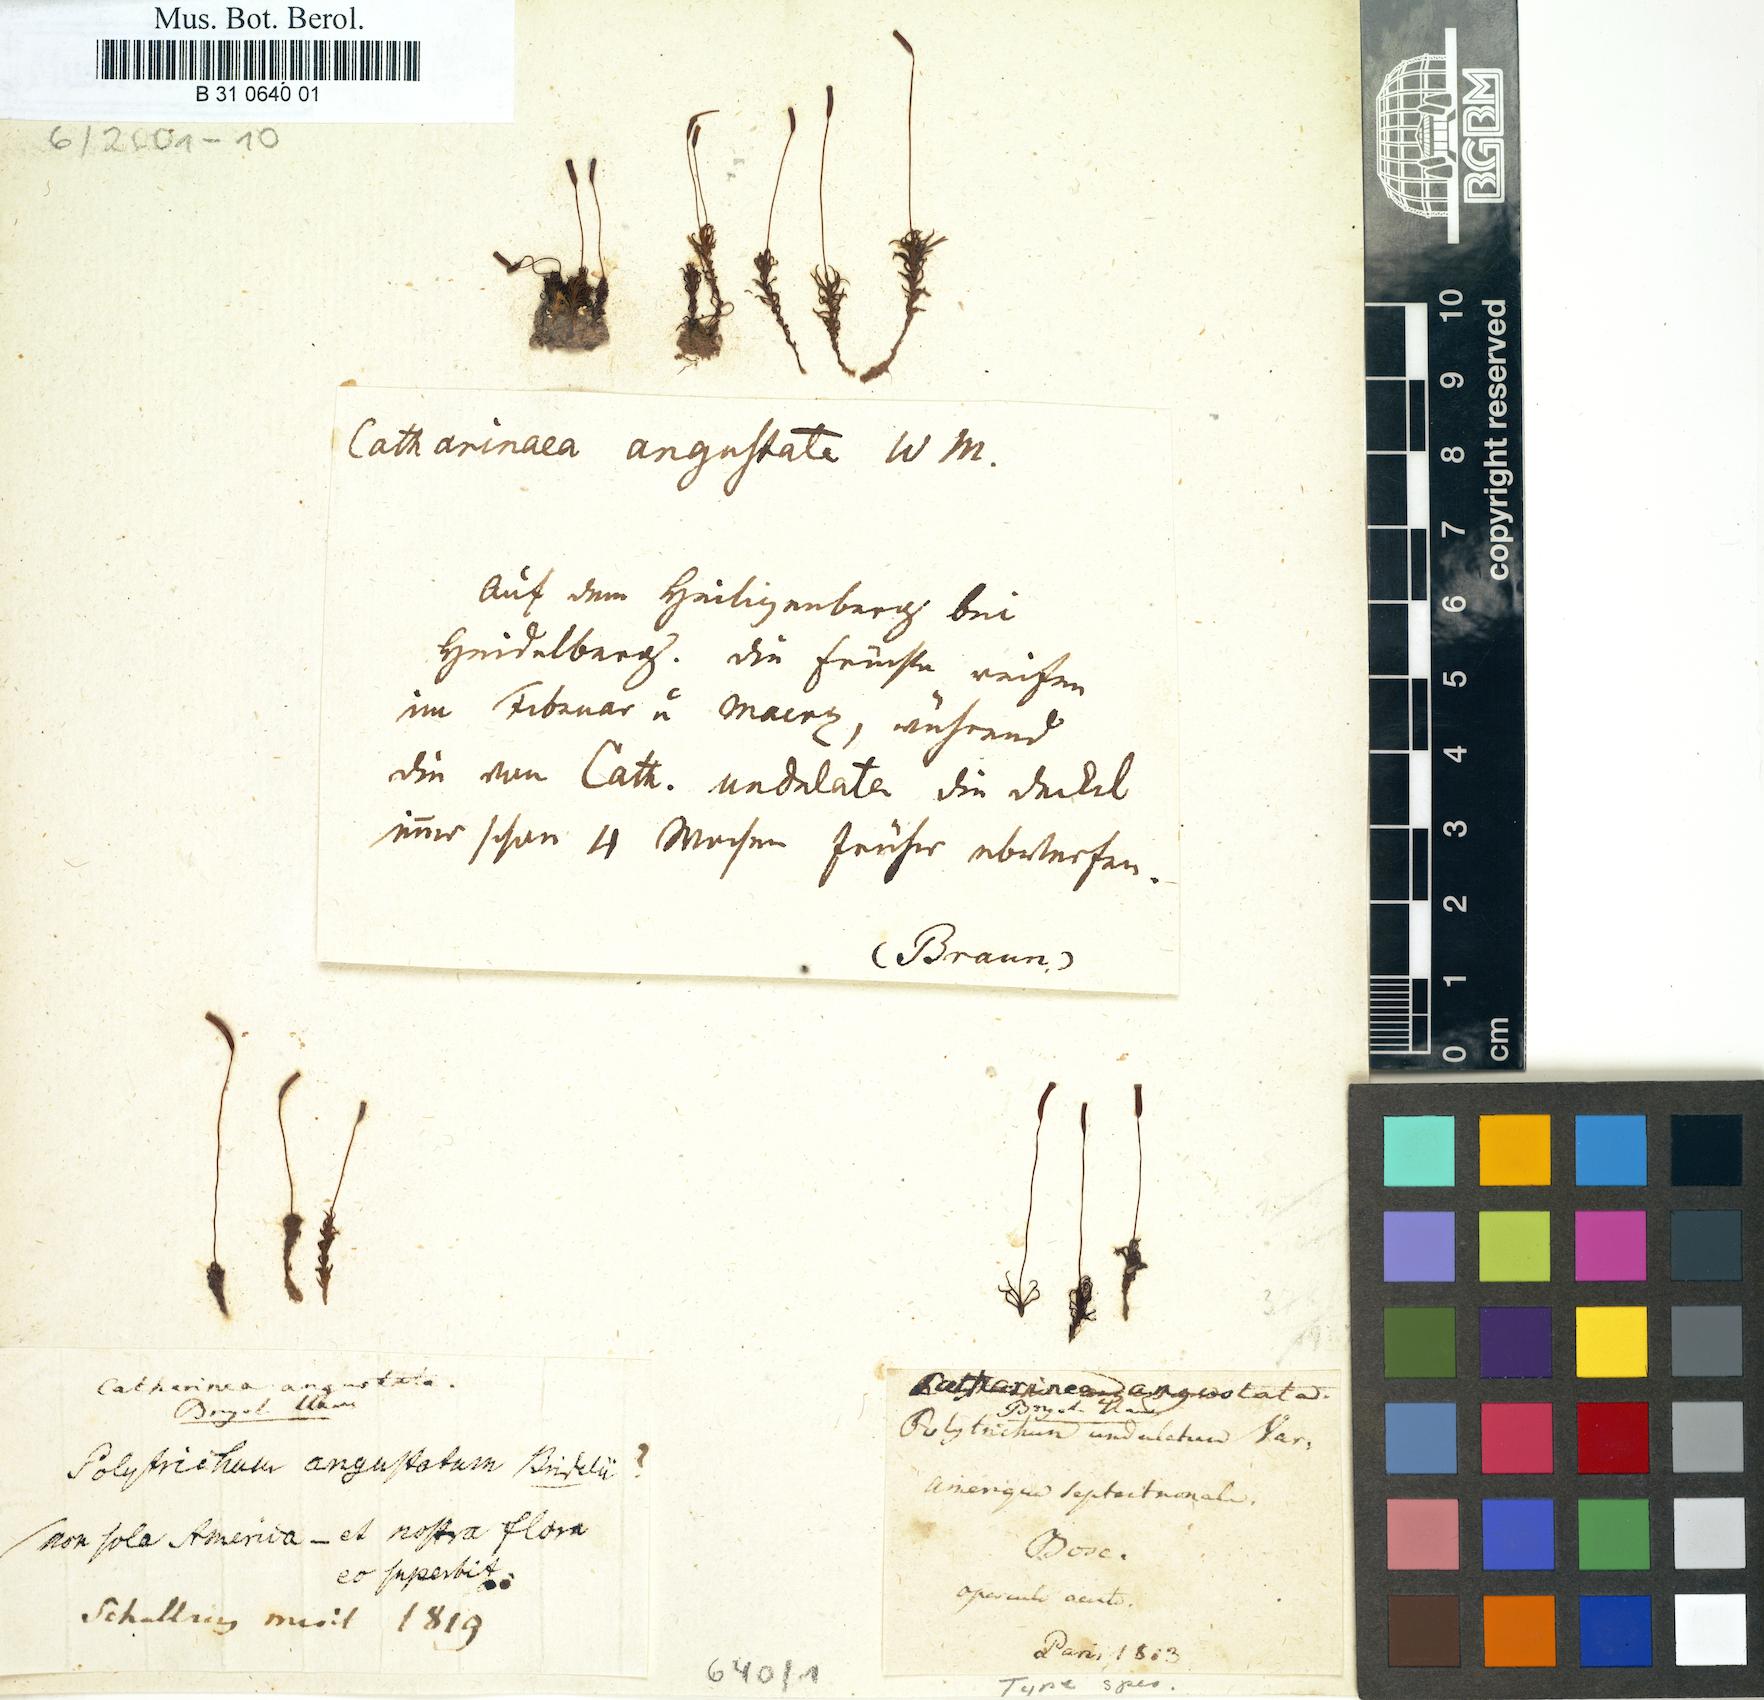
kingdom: Plantae
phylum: Bryophyta
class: Polytrichopsida
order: Polytrichales
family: Polytrichaceae
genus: Atrichum
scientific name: Atrichum angustatum
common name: Lesser smoothcap
